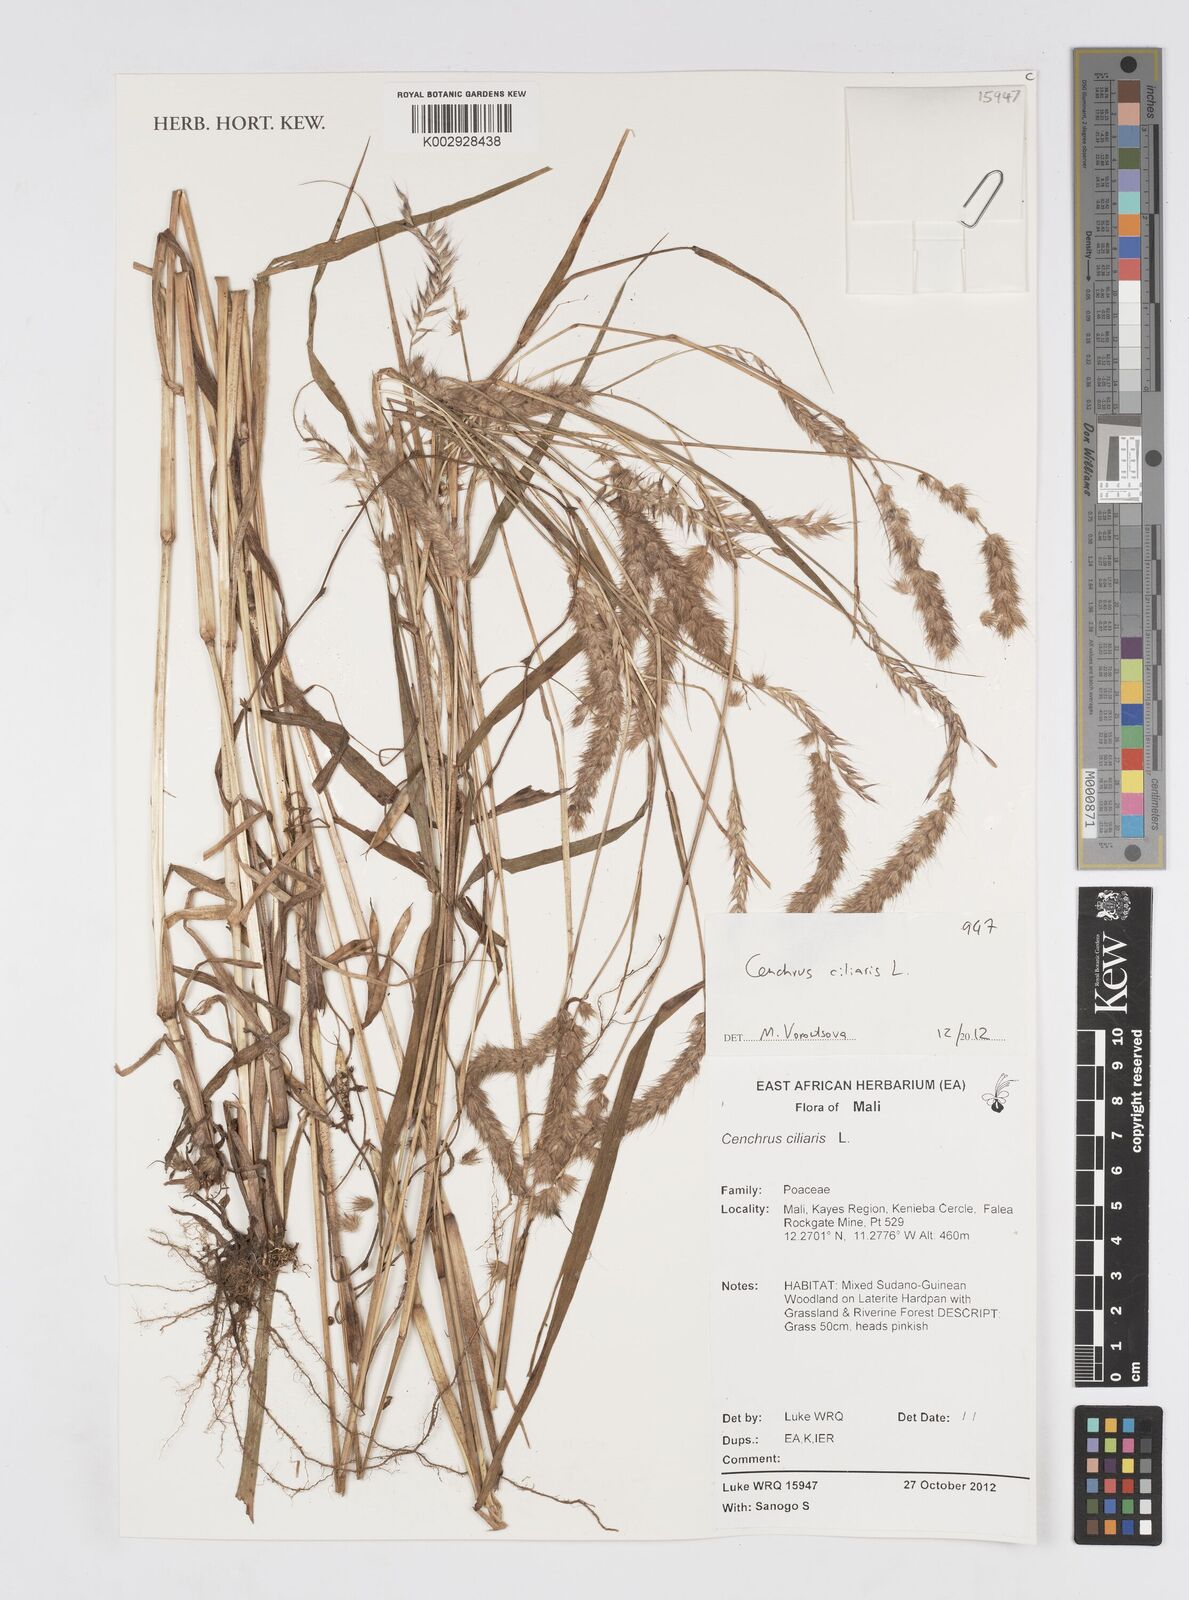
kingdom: Plantae
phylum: Tracheophyta
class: Liliopsida
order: Poales
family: Poaceae
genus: Cenchrus
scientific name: Cenchrus ciliaris
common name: Buffelgrass
